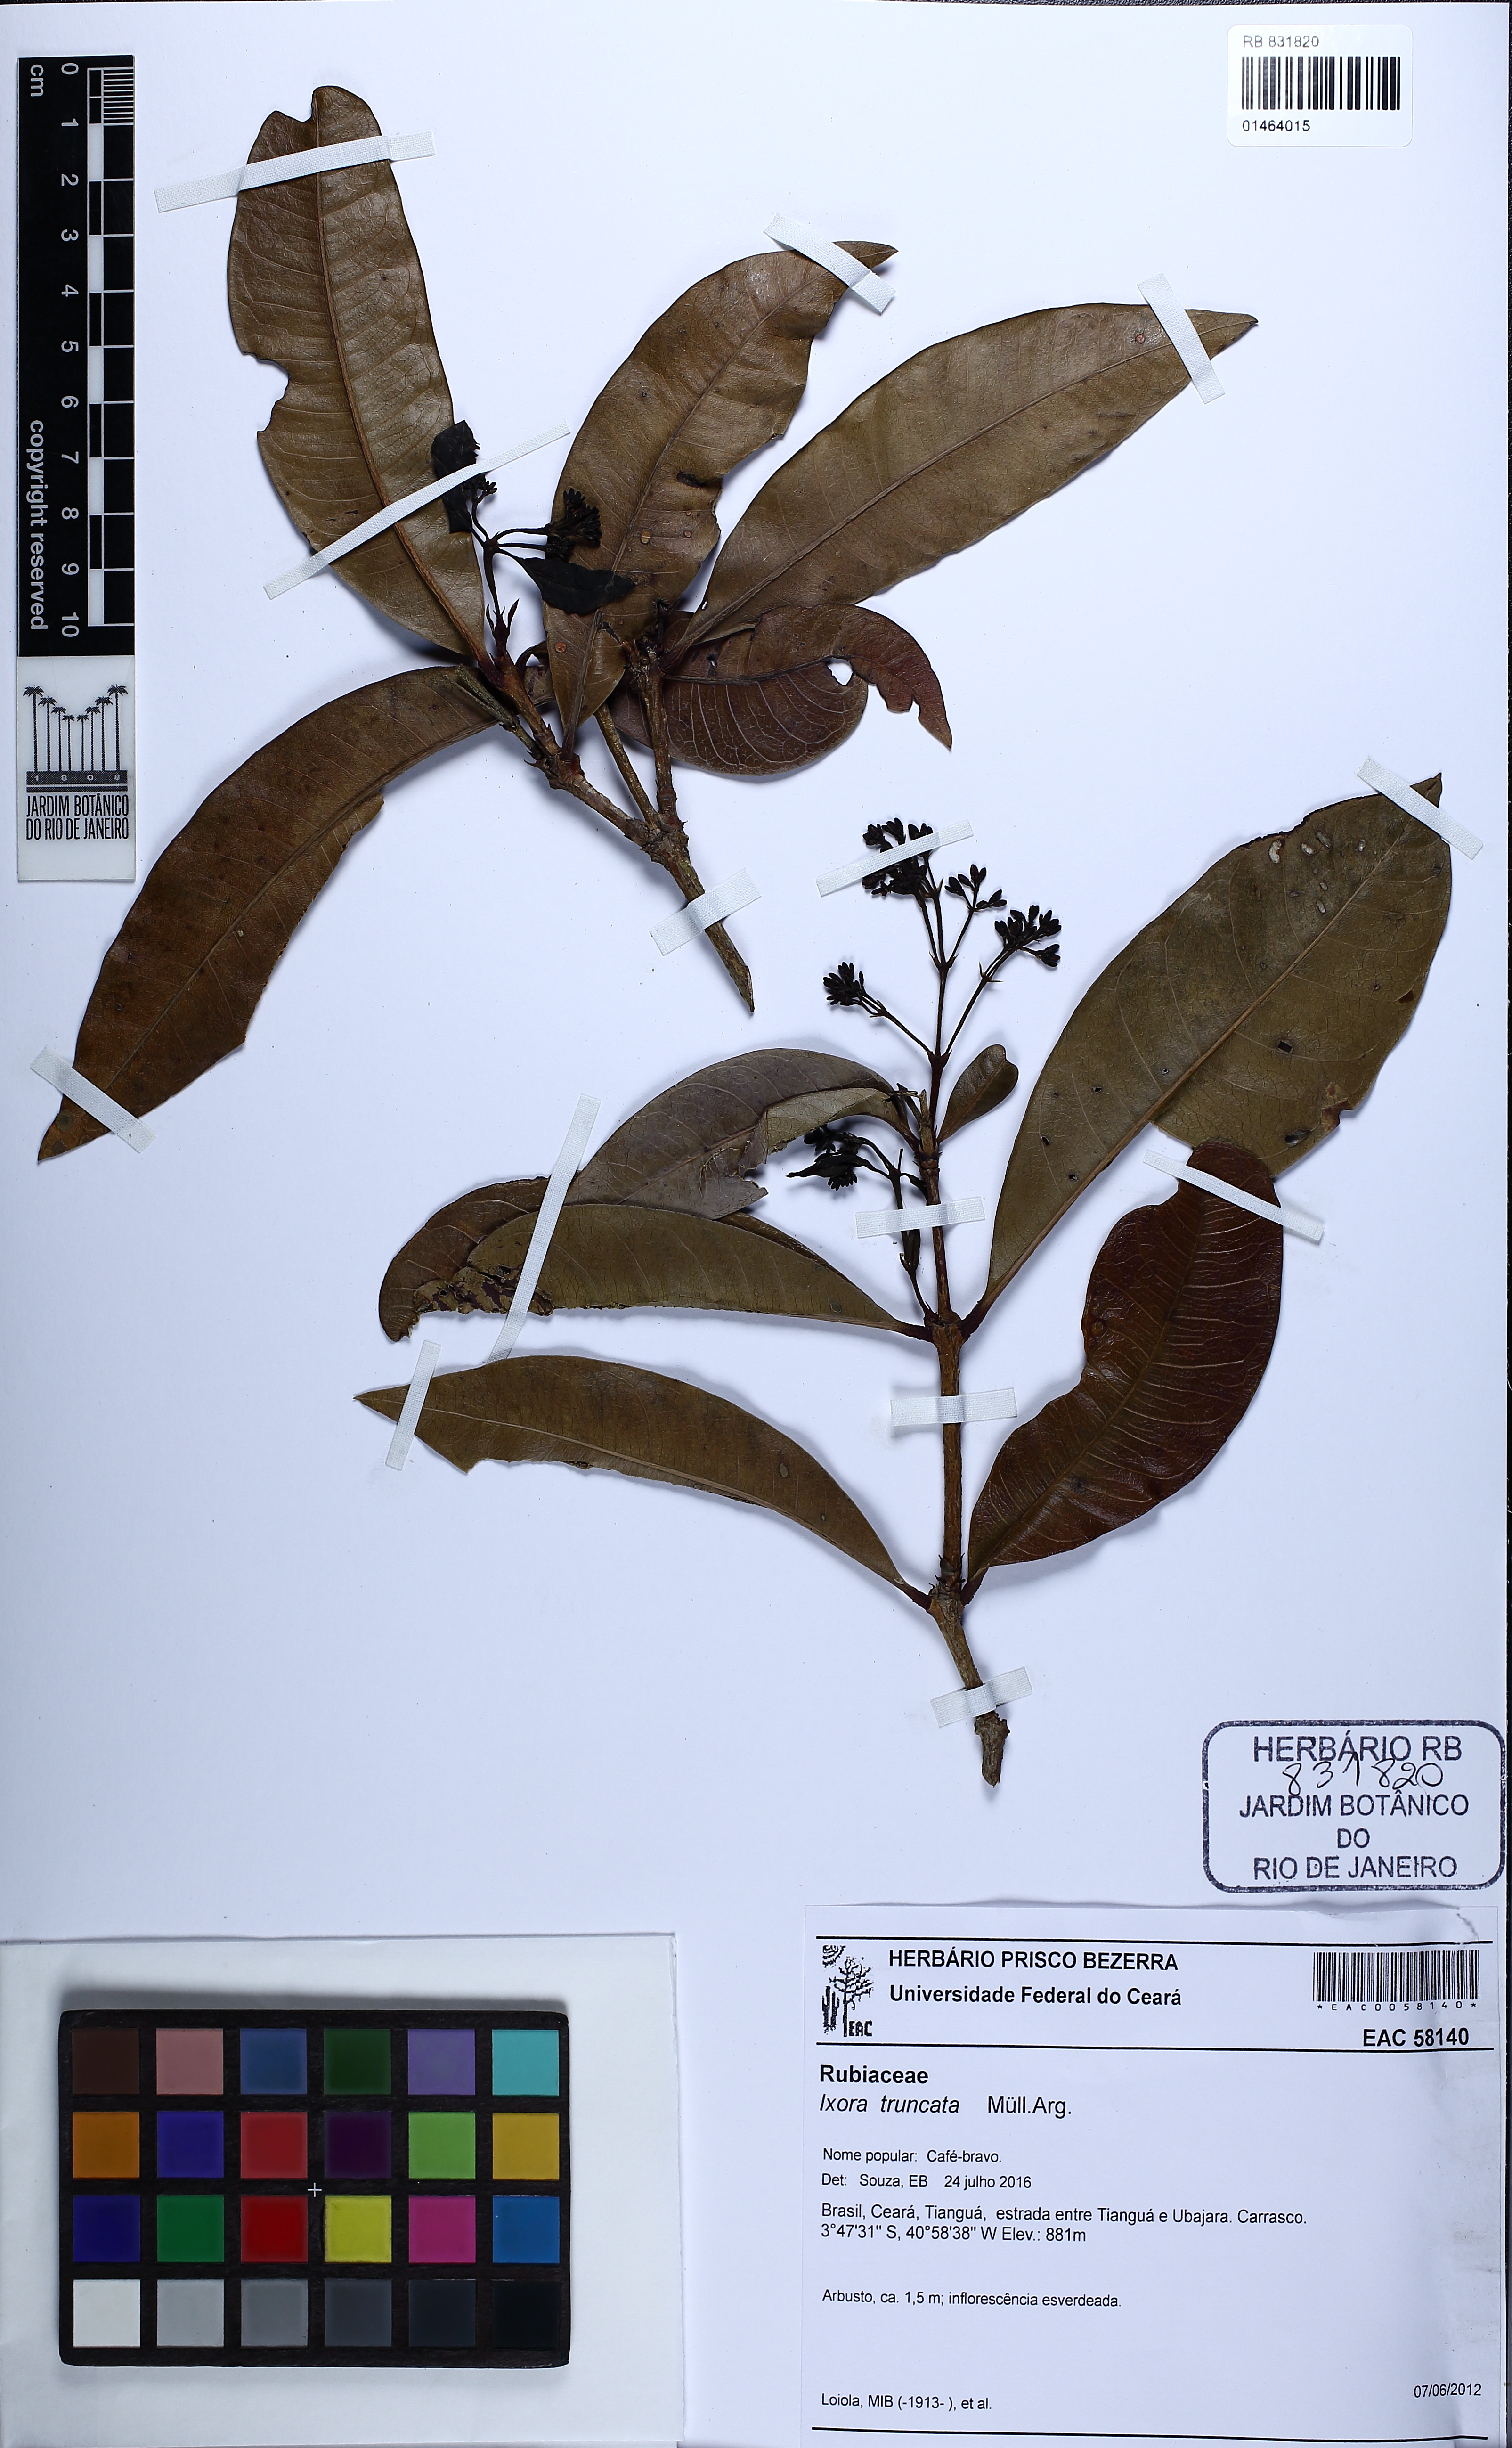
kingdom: Plantae
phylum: Tracheophyta
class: Magnoliopsida
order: Gentianales
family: Rubiaceae
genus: Ixora
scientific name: Ixora gardneriana
